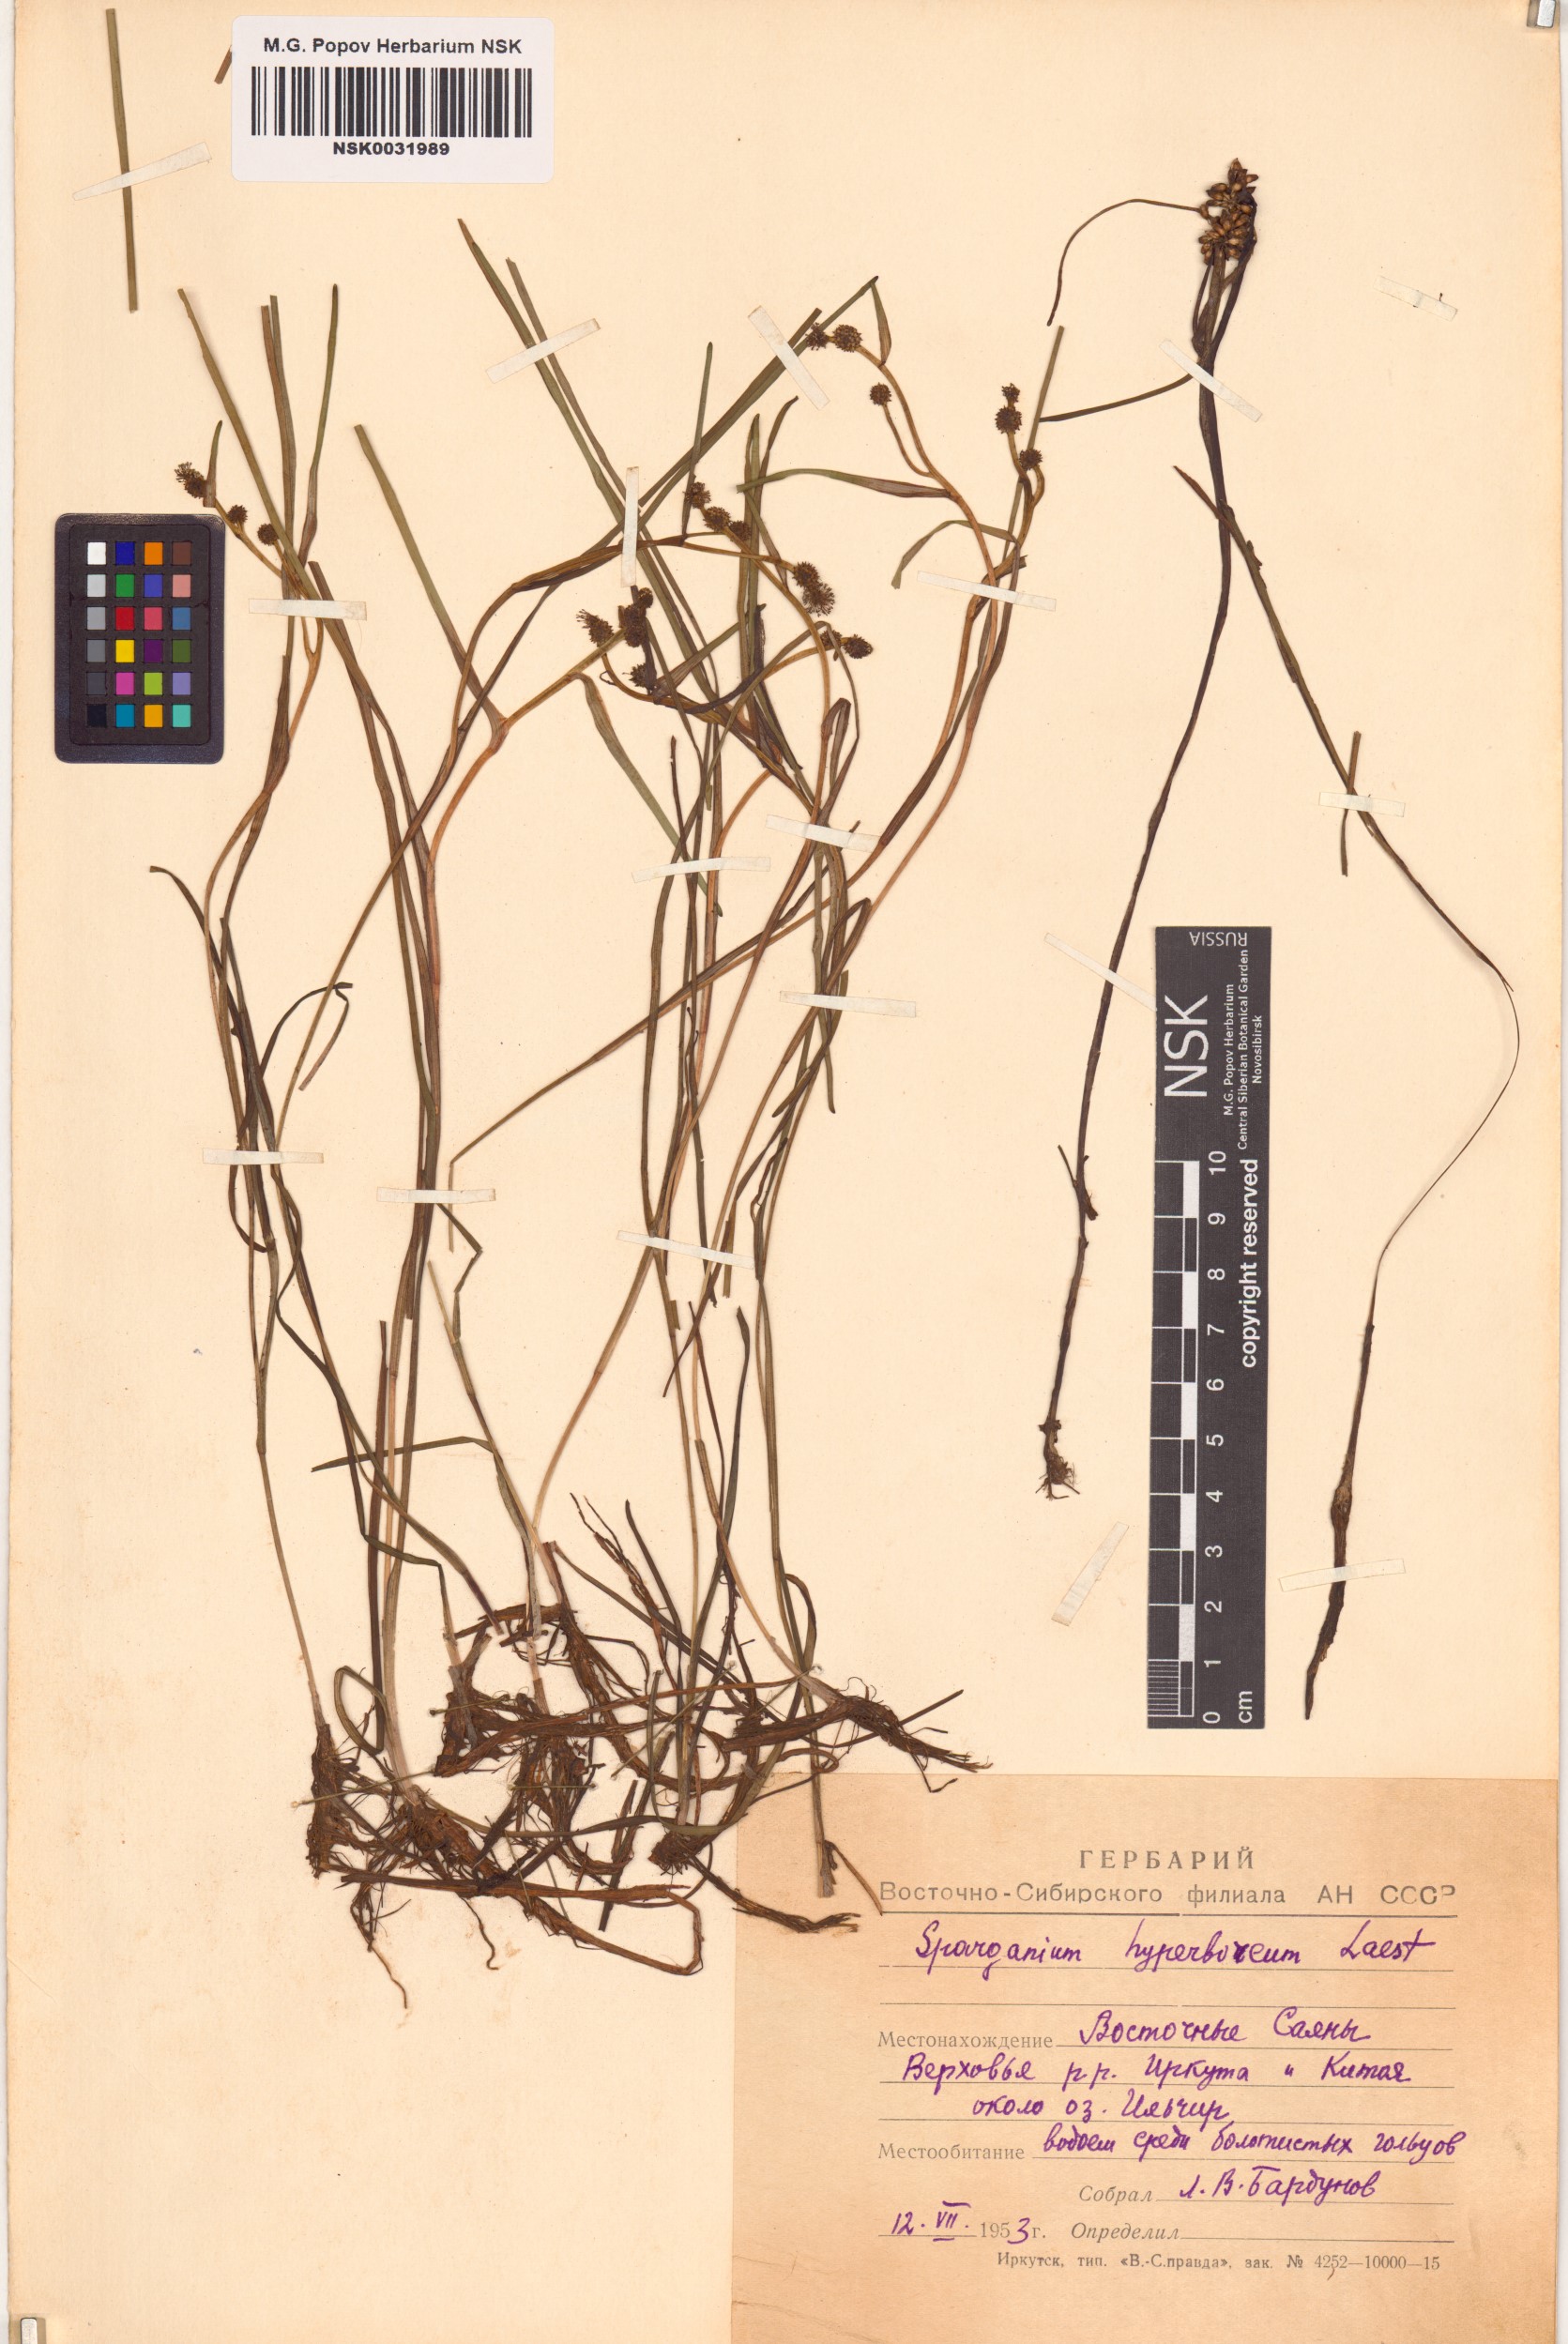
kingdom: Plantae
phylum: Tracheophyta
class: Liliopsida
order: Poales
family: Typhaceae
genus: Sparganium
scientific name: Sparganium hyperboreum
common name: Arctic burreed
